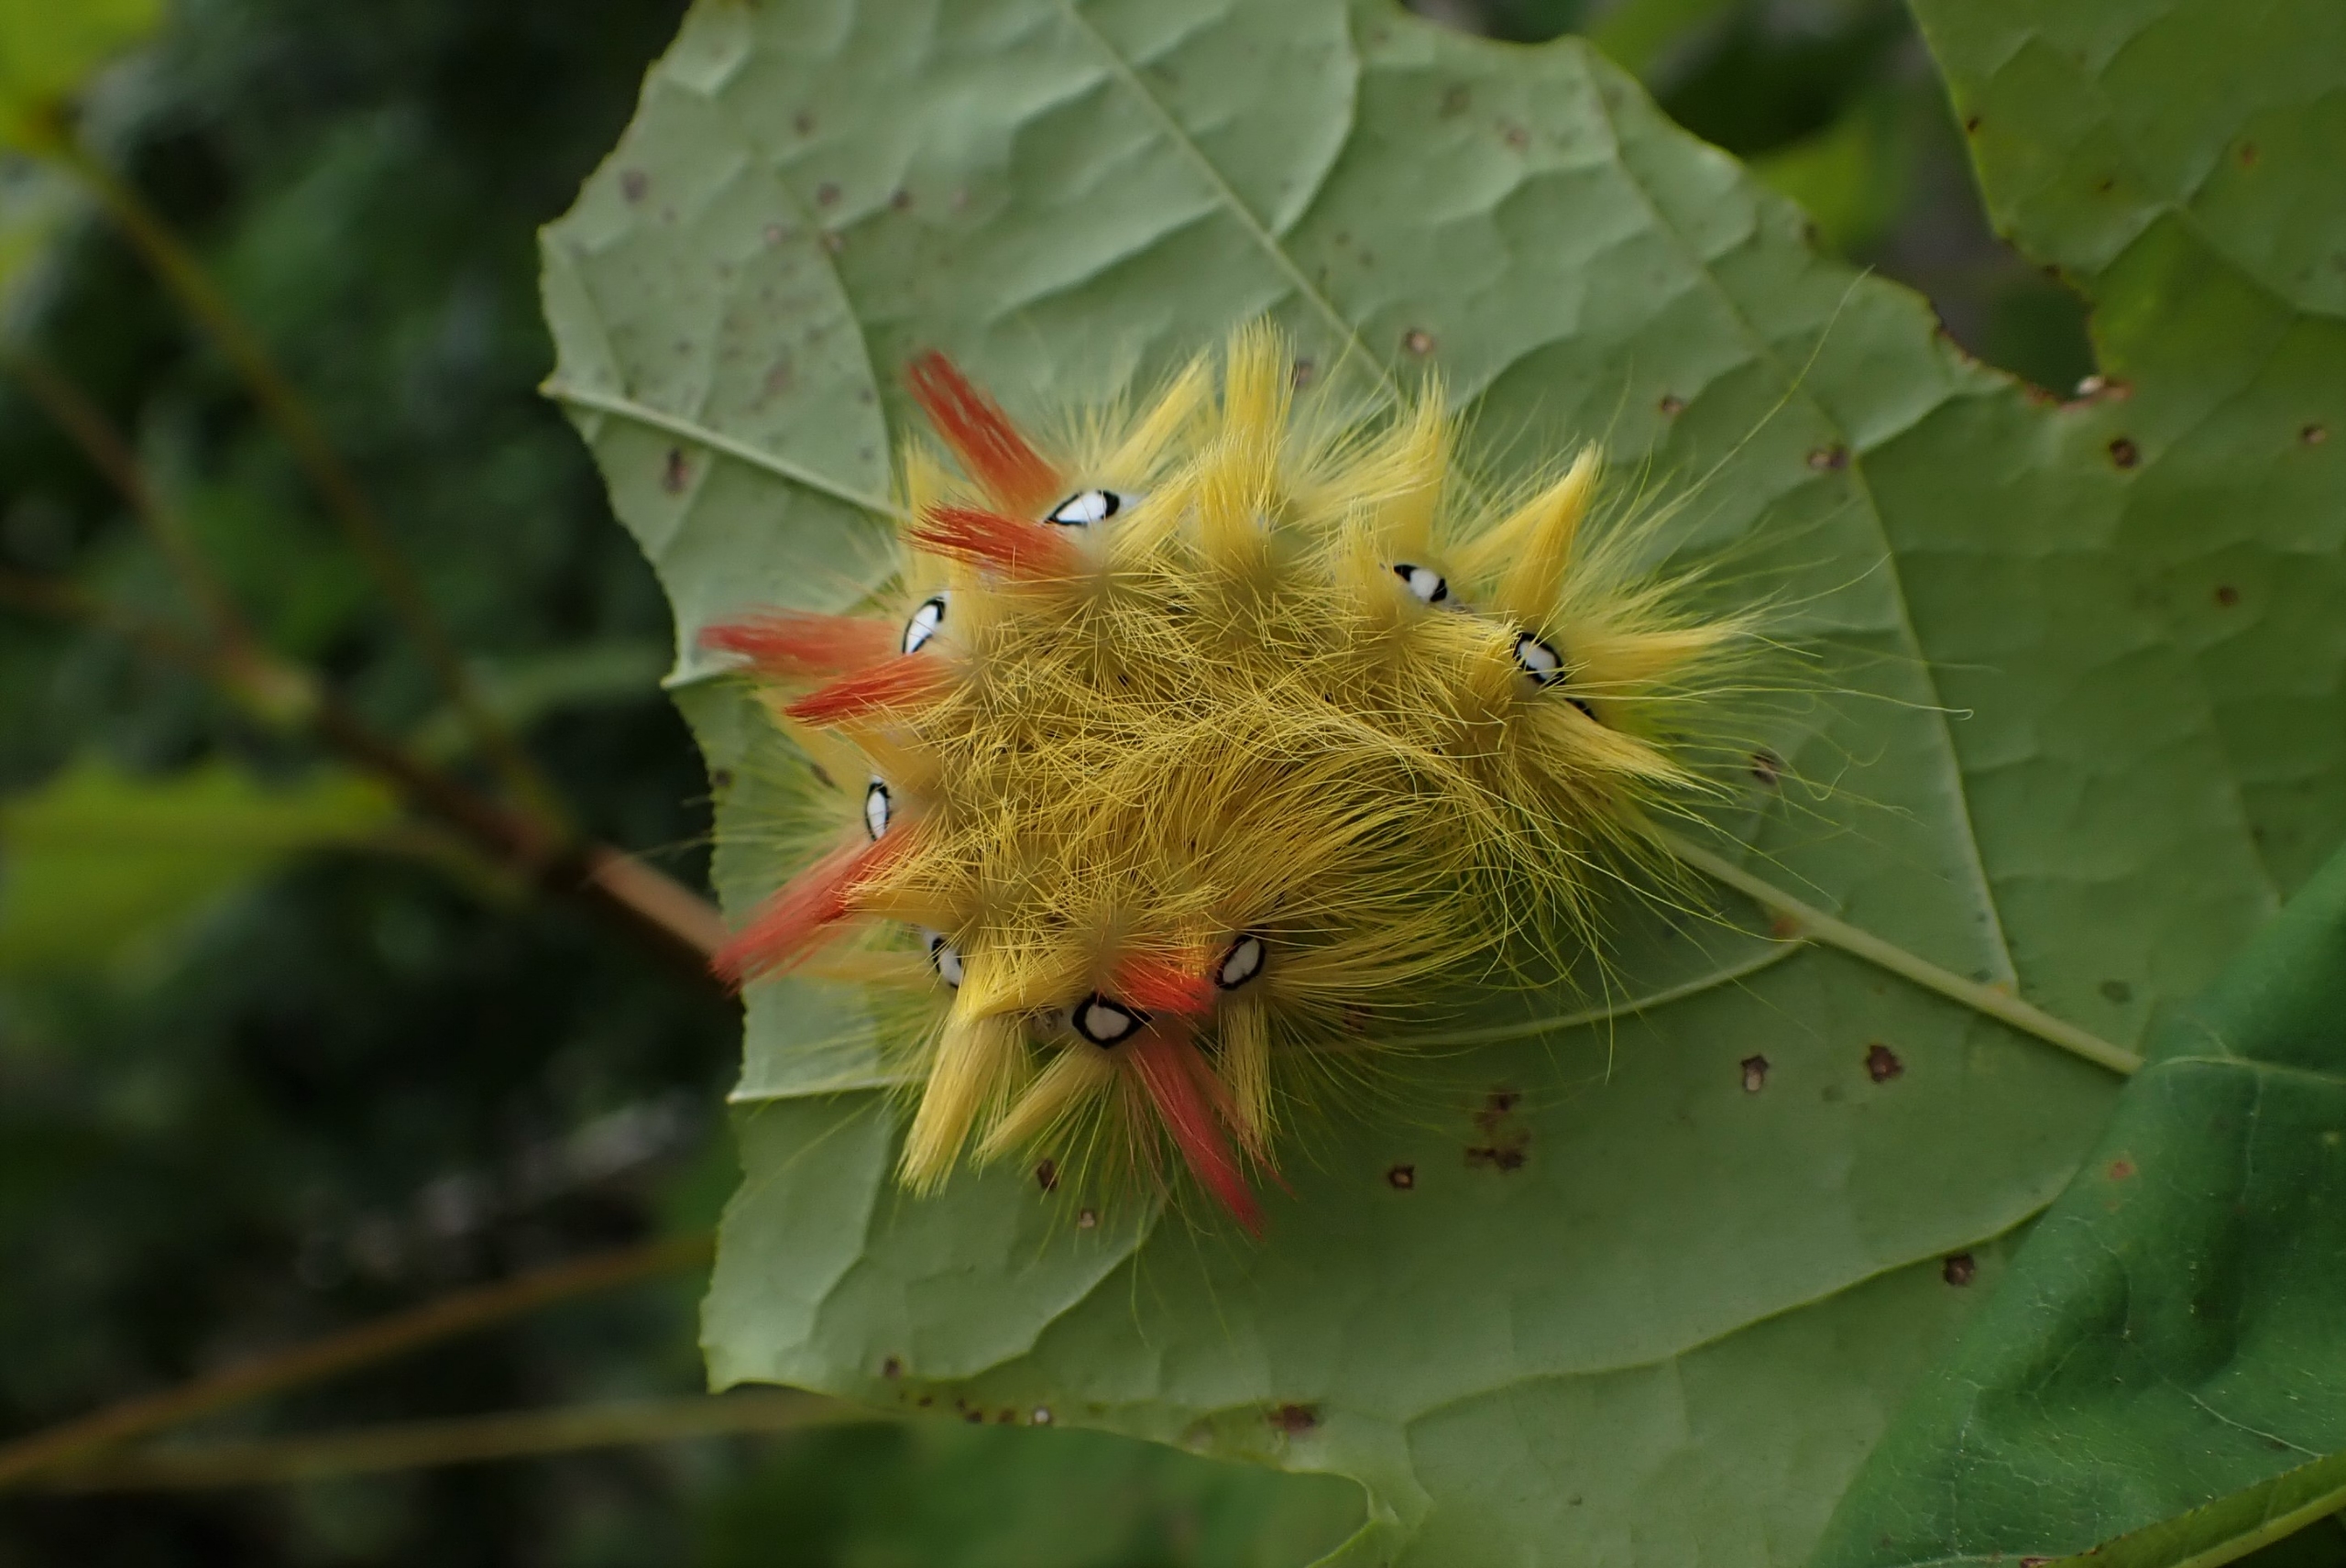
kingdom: Animalia
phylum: Arthropoda
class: Insecta
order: Lepidoptera
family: Noctuidae
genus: Acronicta
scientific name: Acronicta aceris
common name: Ahornugle
